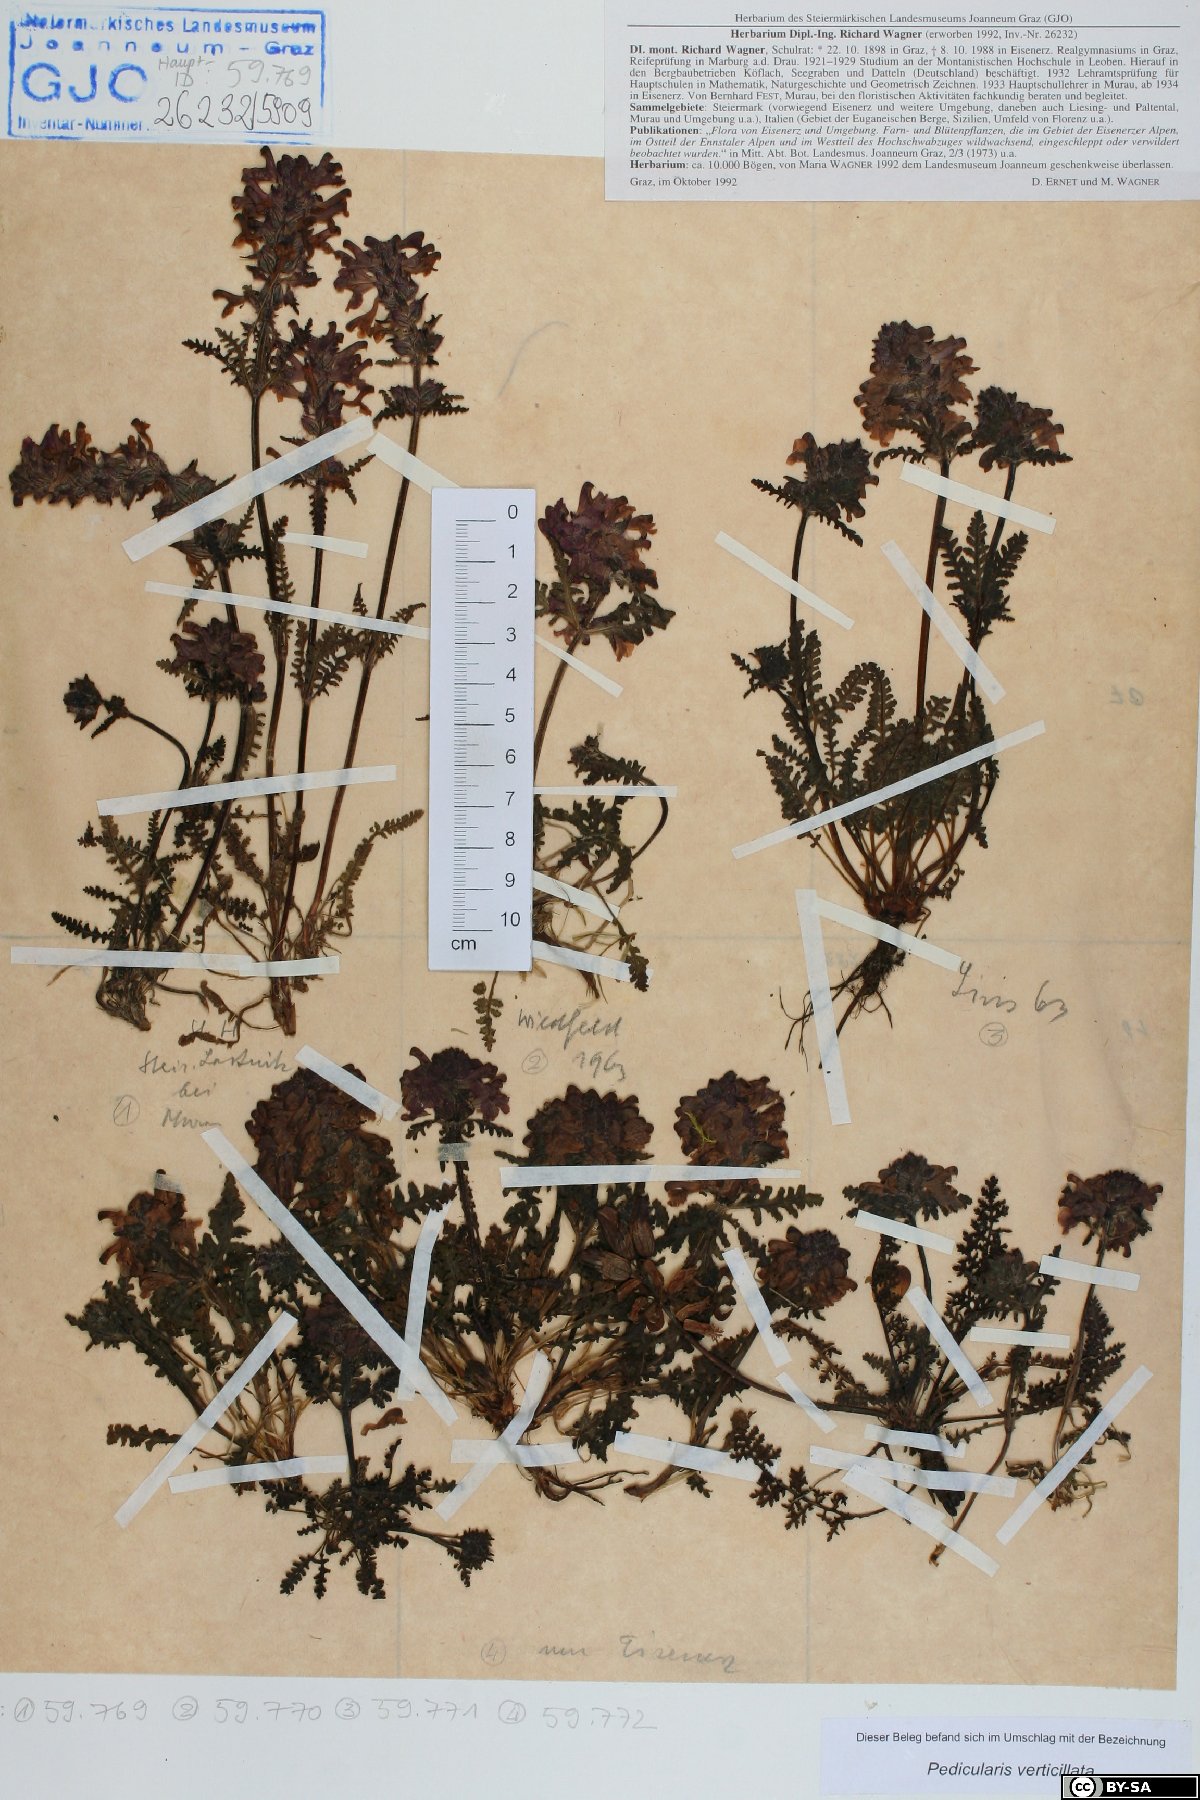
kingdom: Plantae
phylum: Tracheophyta
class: Magnoliopsida
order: Lamiales
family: Orobanchaceae
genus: Pedicularis
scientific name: Pedicularis verticillata
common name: Whorled lousewort
